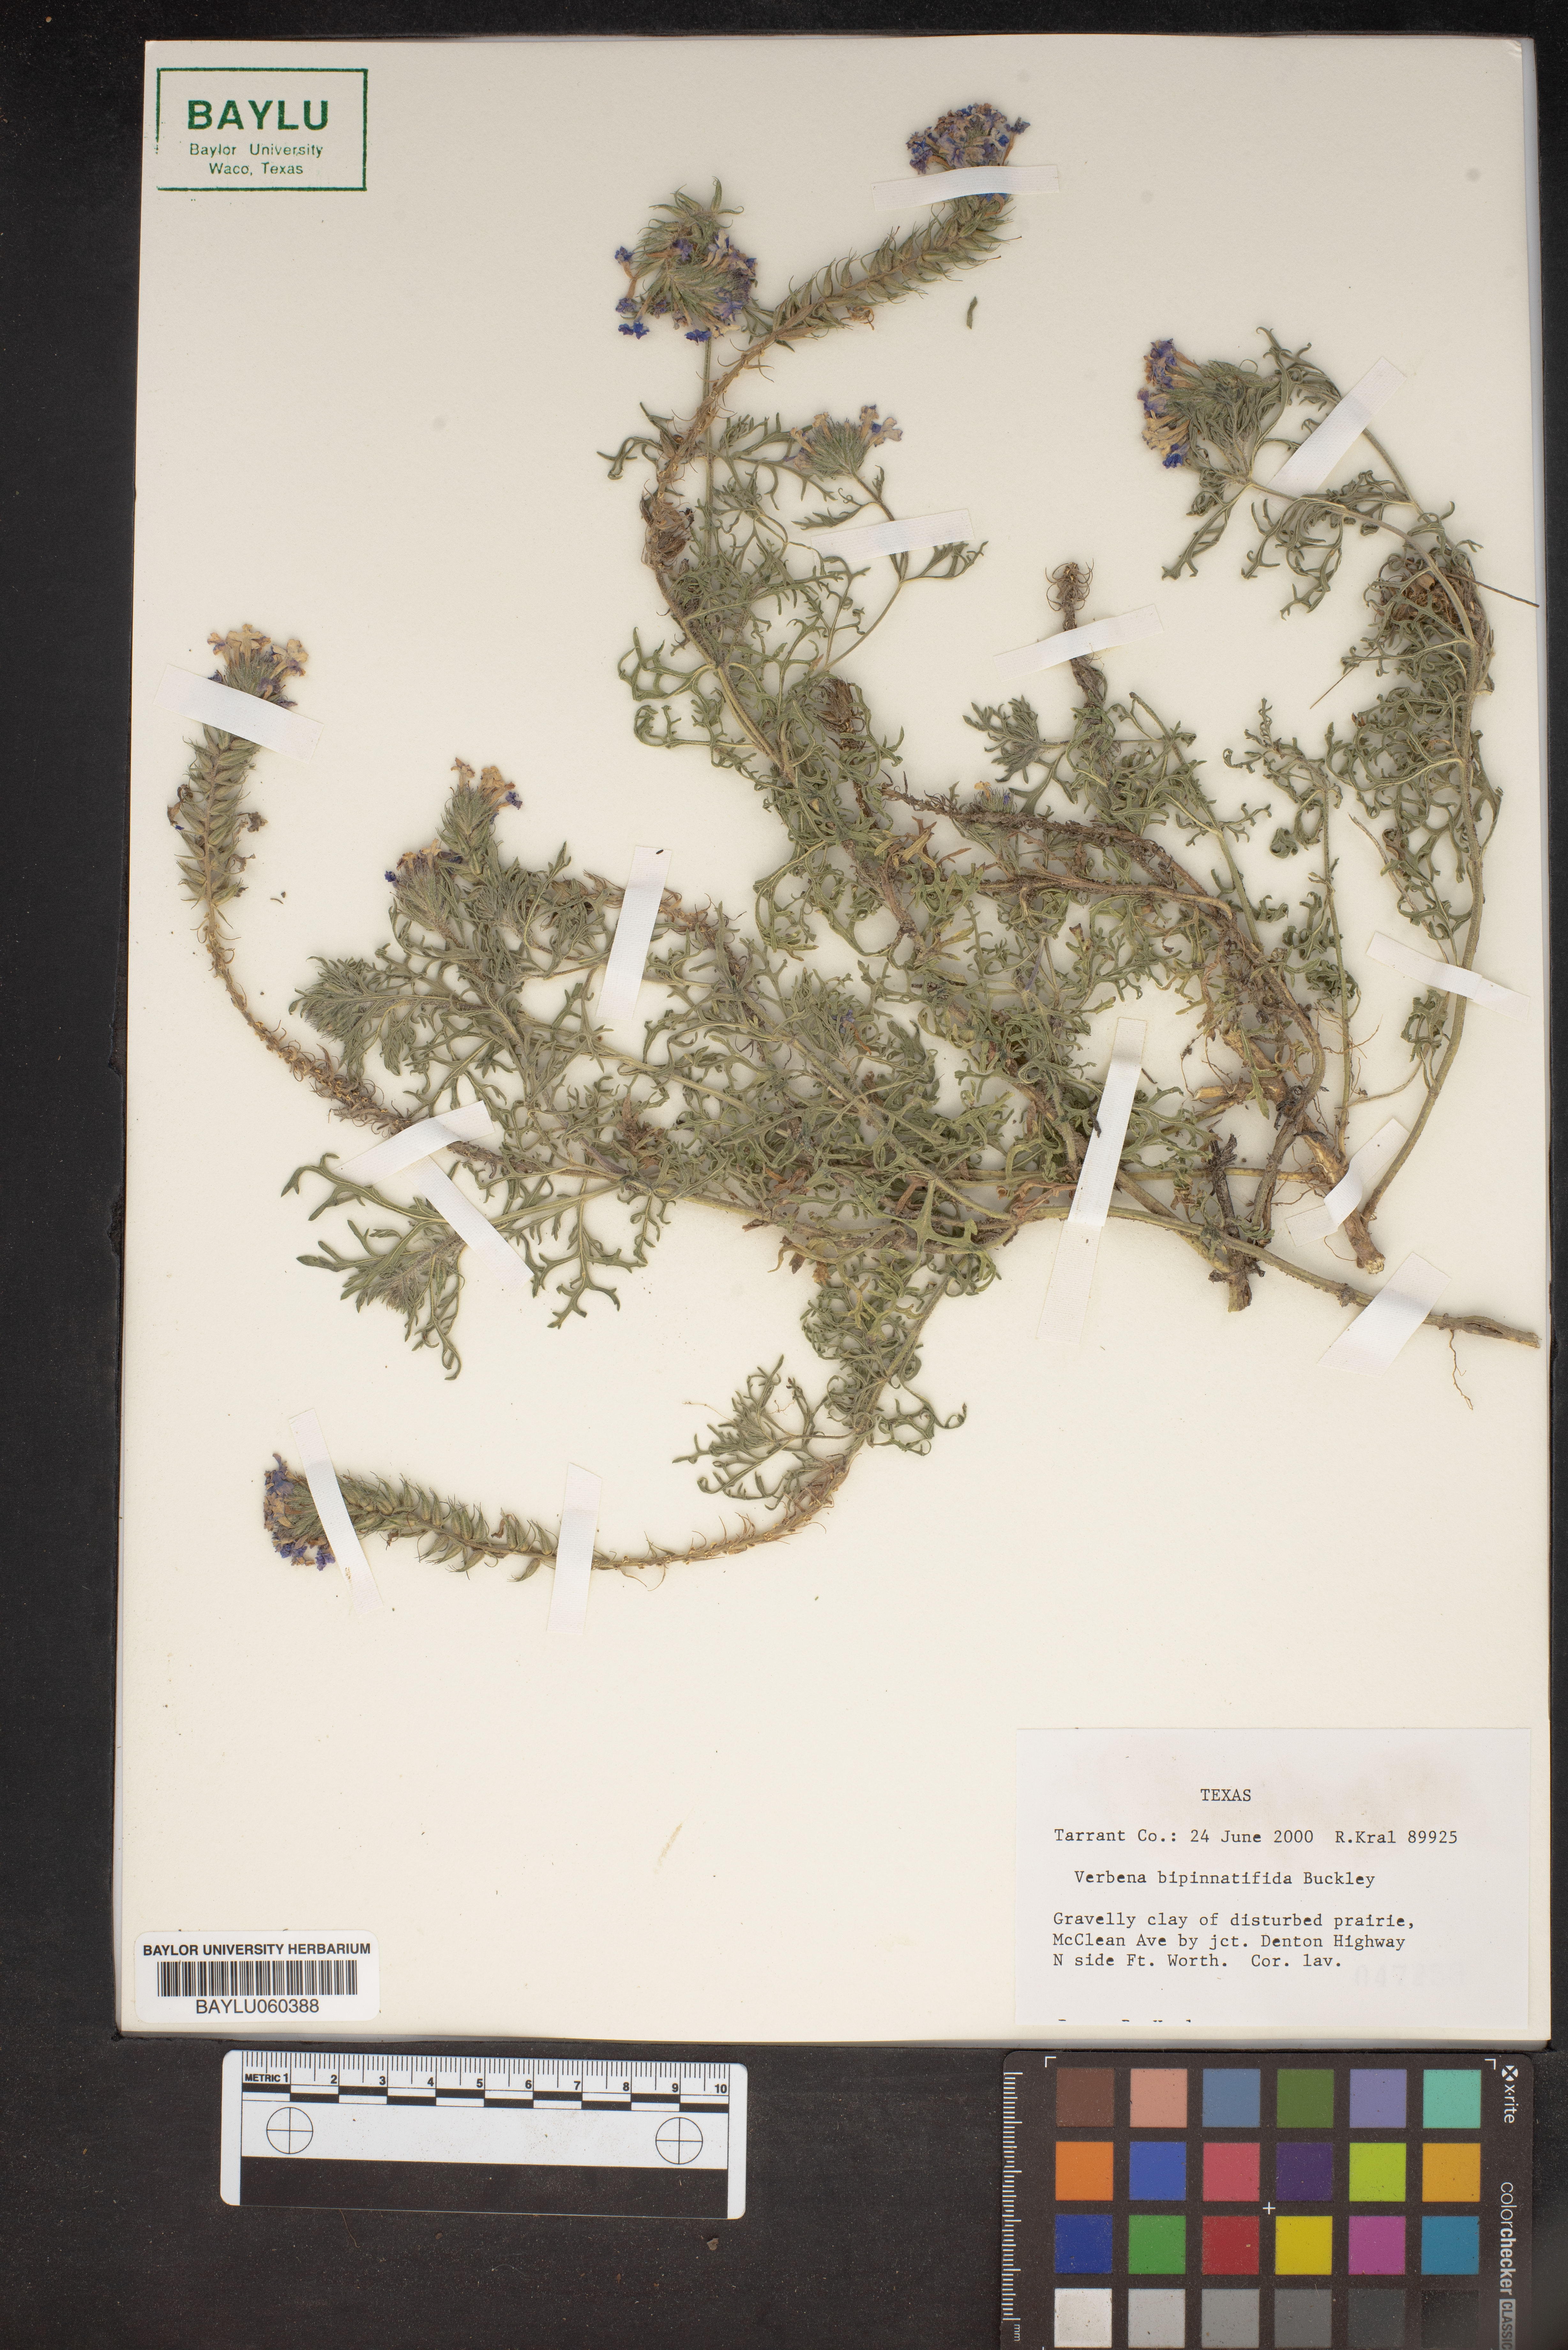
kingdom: Plantae
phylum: Tracheophyta
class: Magnoliopsida
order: Lamiales
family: Verbenaceae
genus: Verbena
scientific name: Verbena bipinnatifida
